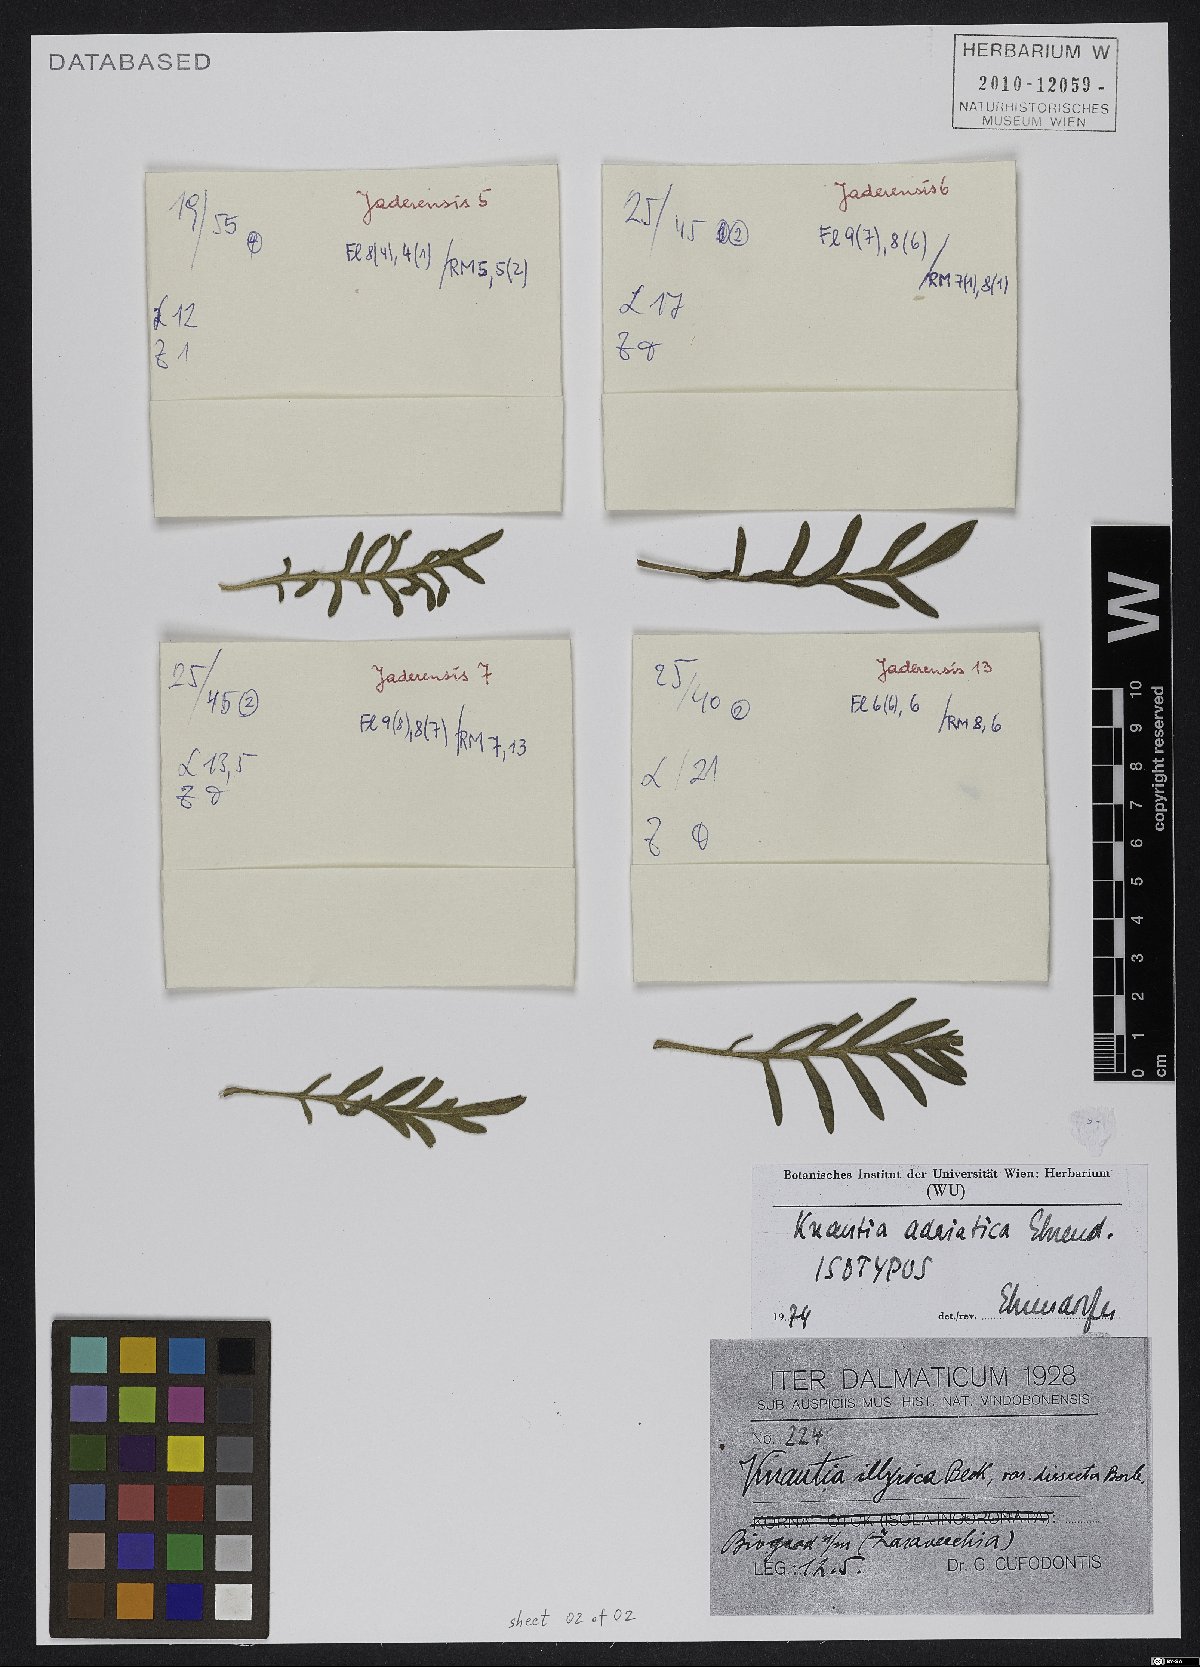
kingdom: Plantae
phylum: Tracheophyta
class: Magnoliopsida
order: Dipsacales
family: Caprifoliaceae
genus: Knautia
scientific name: Knautia adriatica
